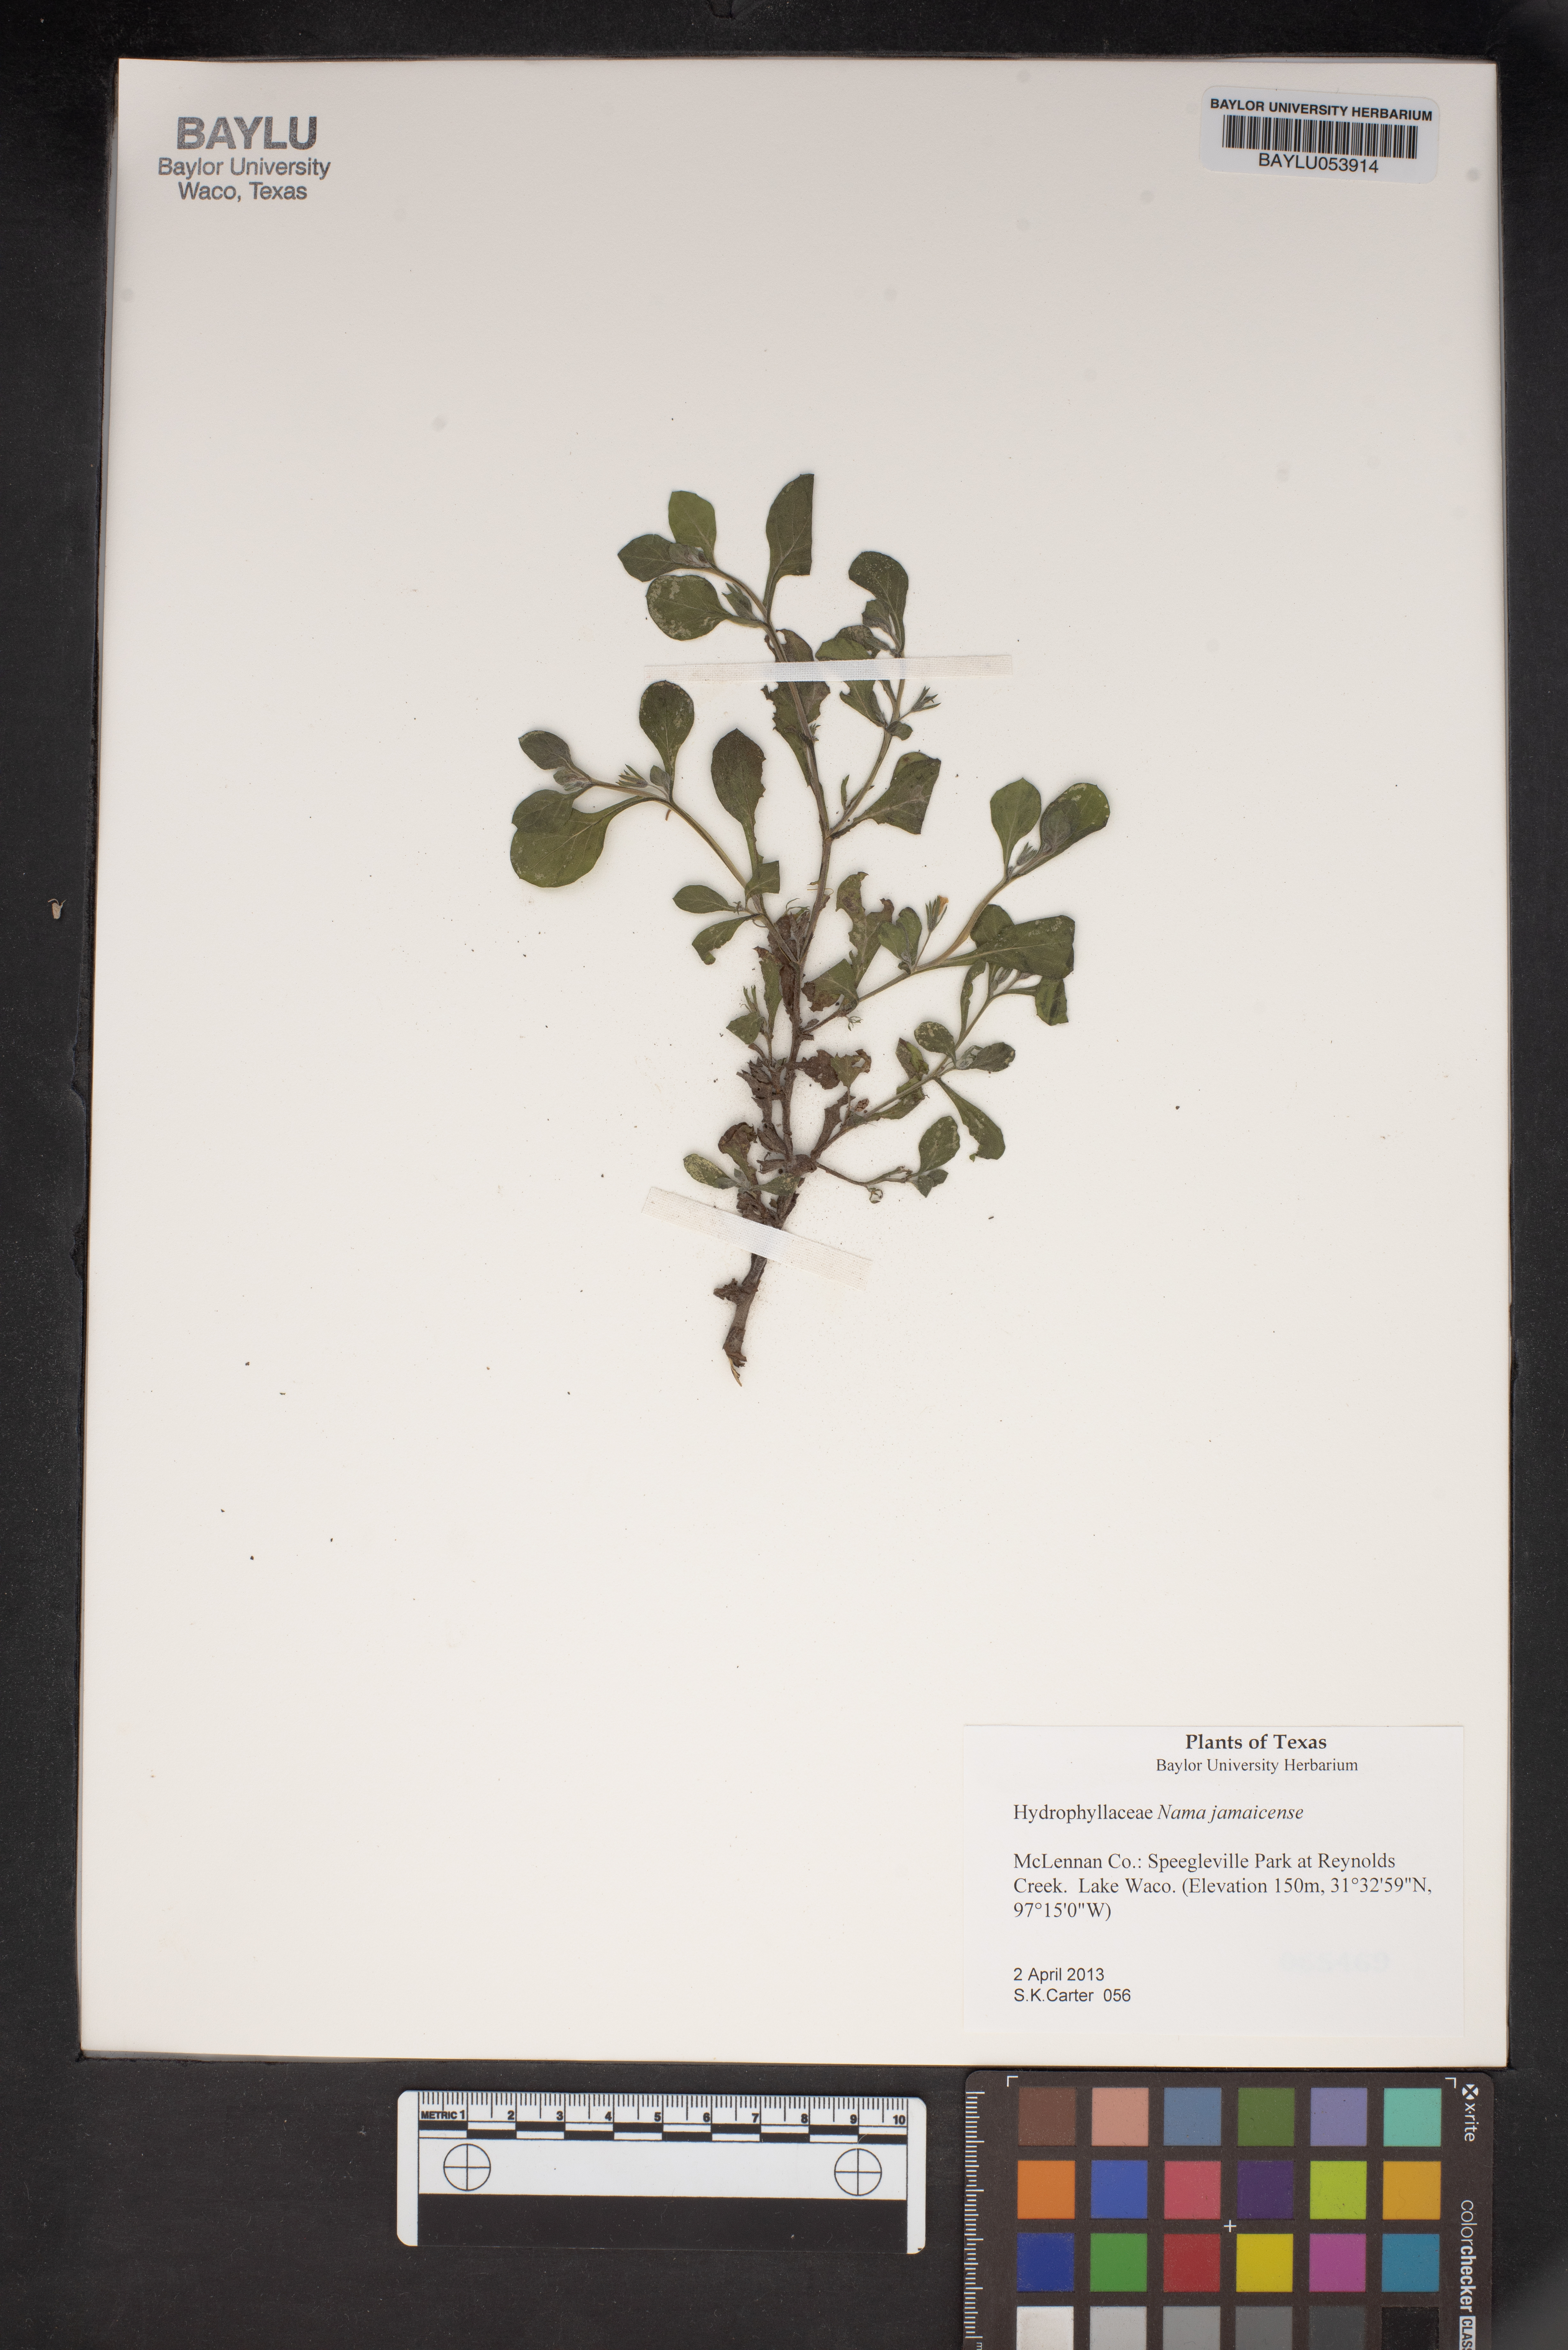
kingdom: Plantae
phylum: Tracheophyta
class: Magnoliopsida
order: Boraginales
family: Namaceae
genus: Nama
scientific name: Nama jamaicense
